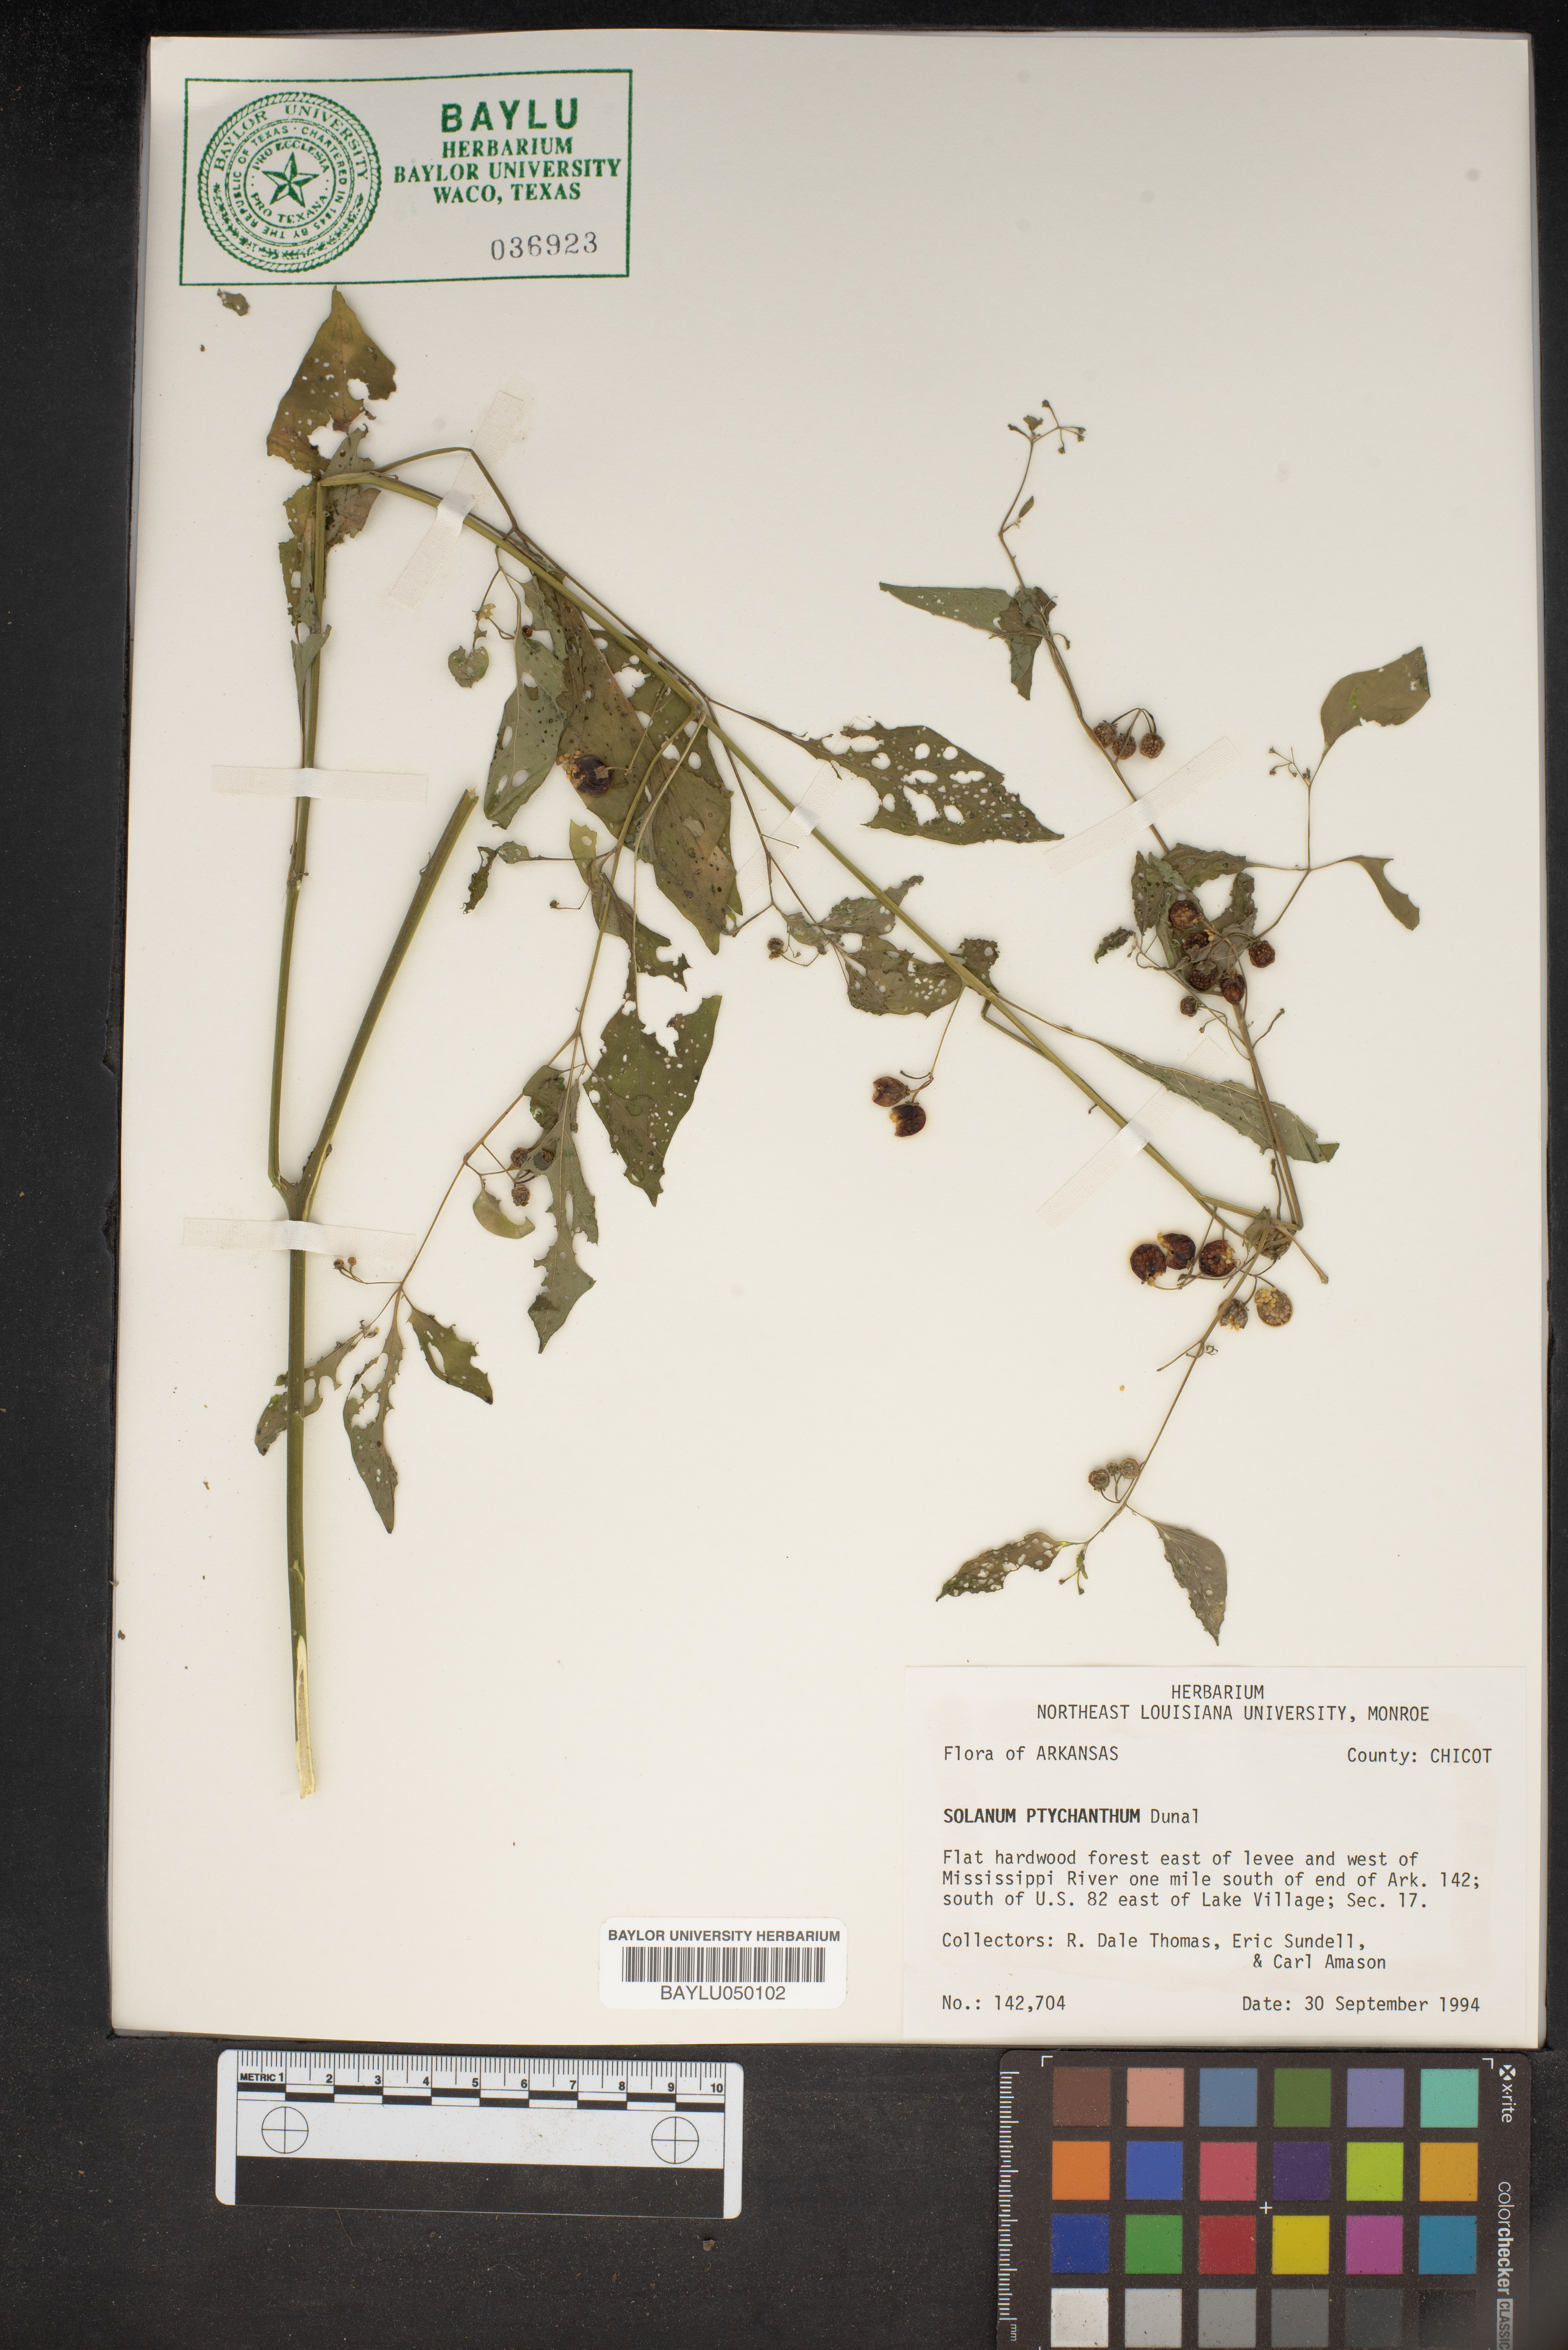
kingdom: Plantae
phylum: Tracheophyta
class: Magnoliopsida
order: Solanales
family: Solanaceae
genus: Solanum
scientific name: Solanum americanum
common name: American black nightshade
